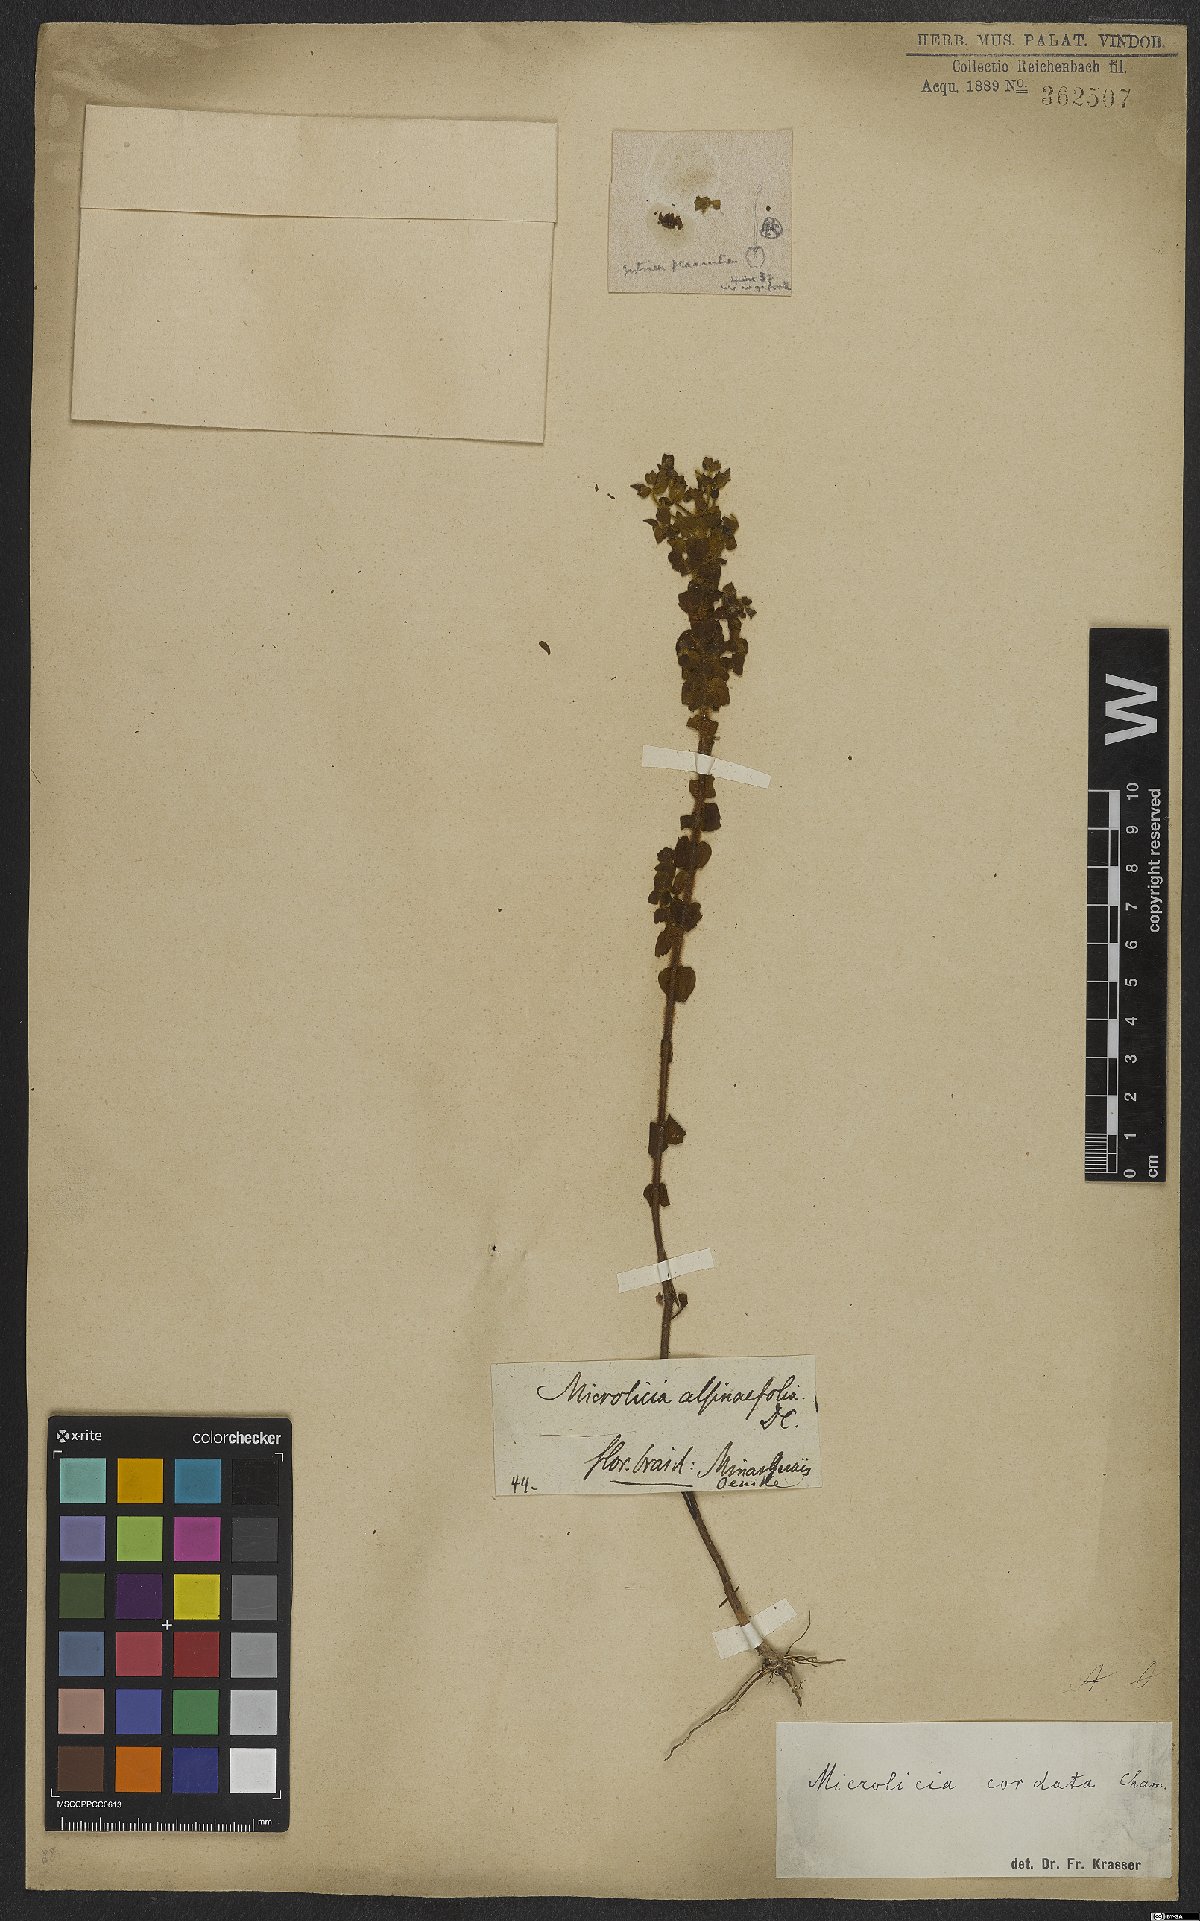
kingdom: Plantae
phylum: Tracheophyta
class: Magnoliopsida
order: Myrtales
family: Melastomataceae
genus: Microlicia
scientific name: Microlicia cordata
